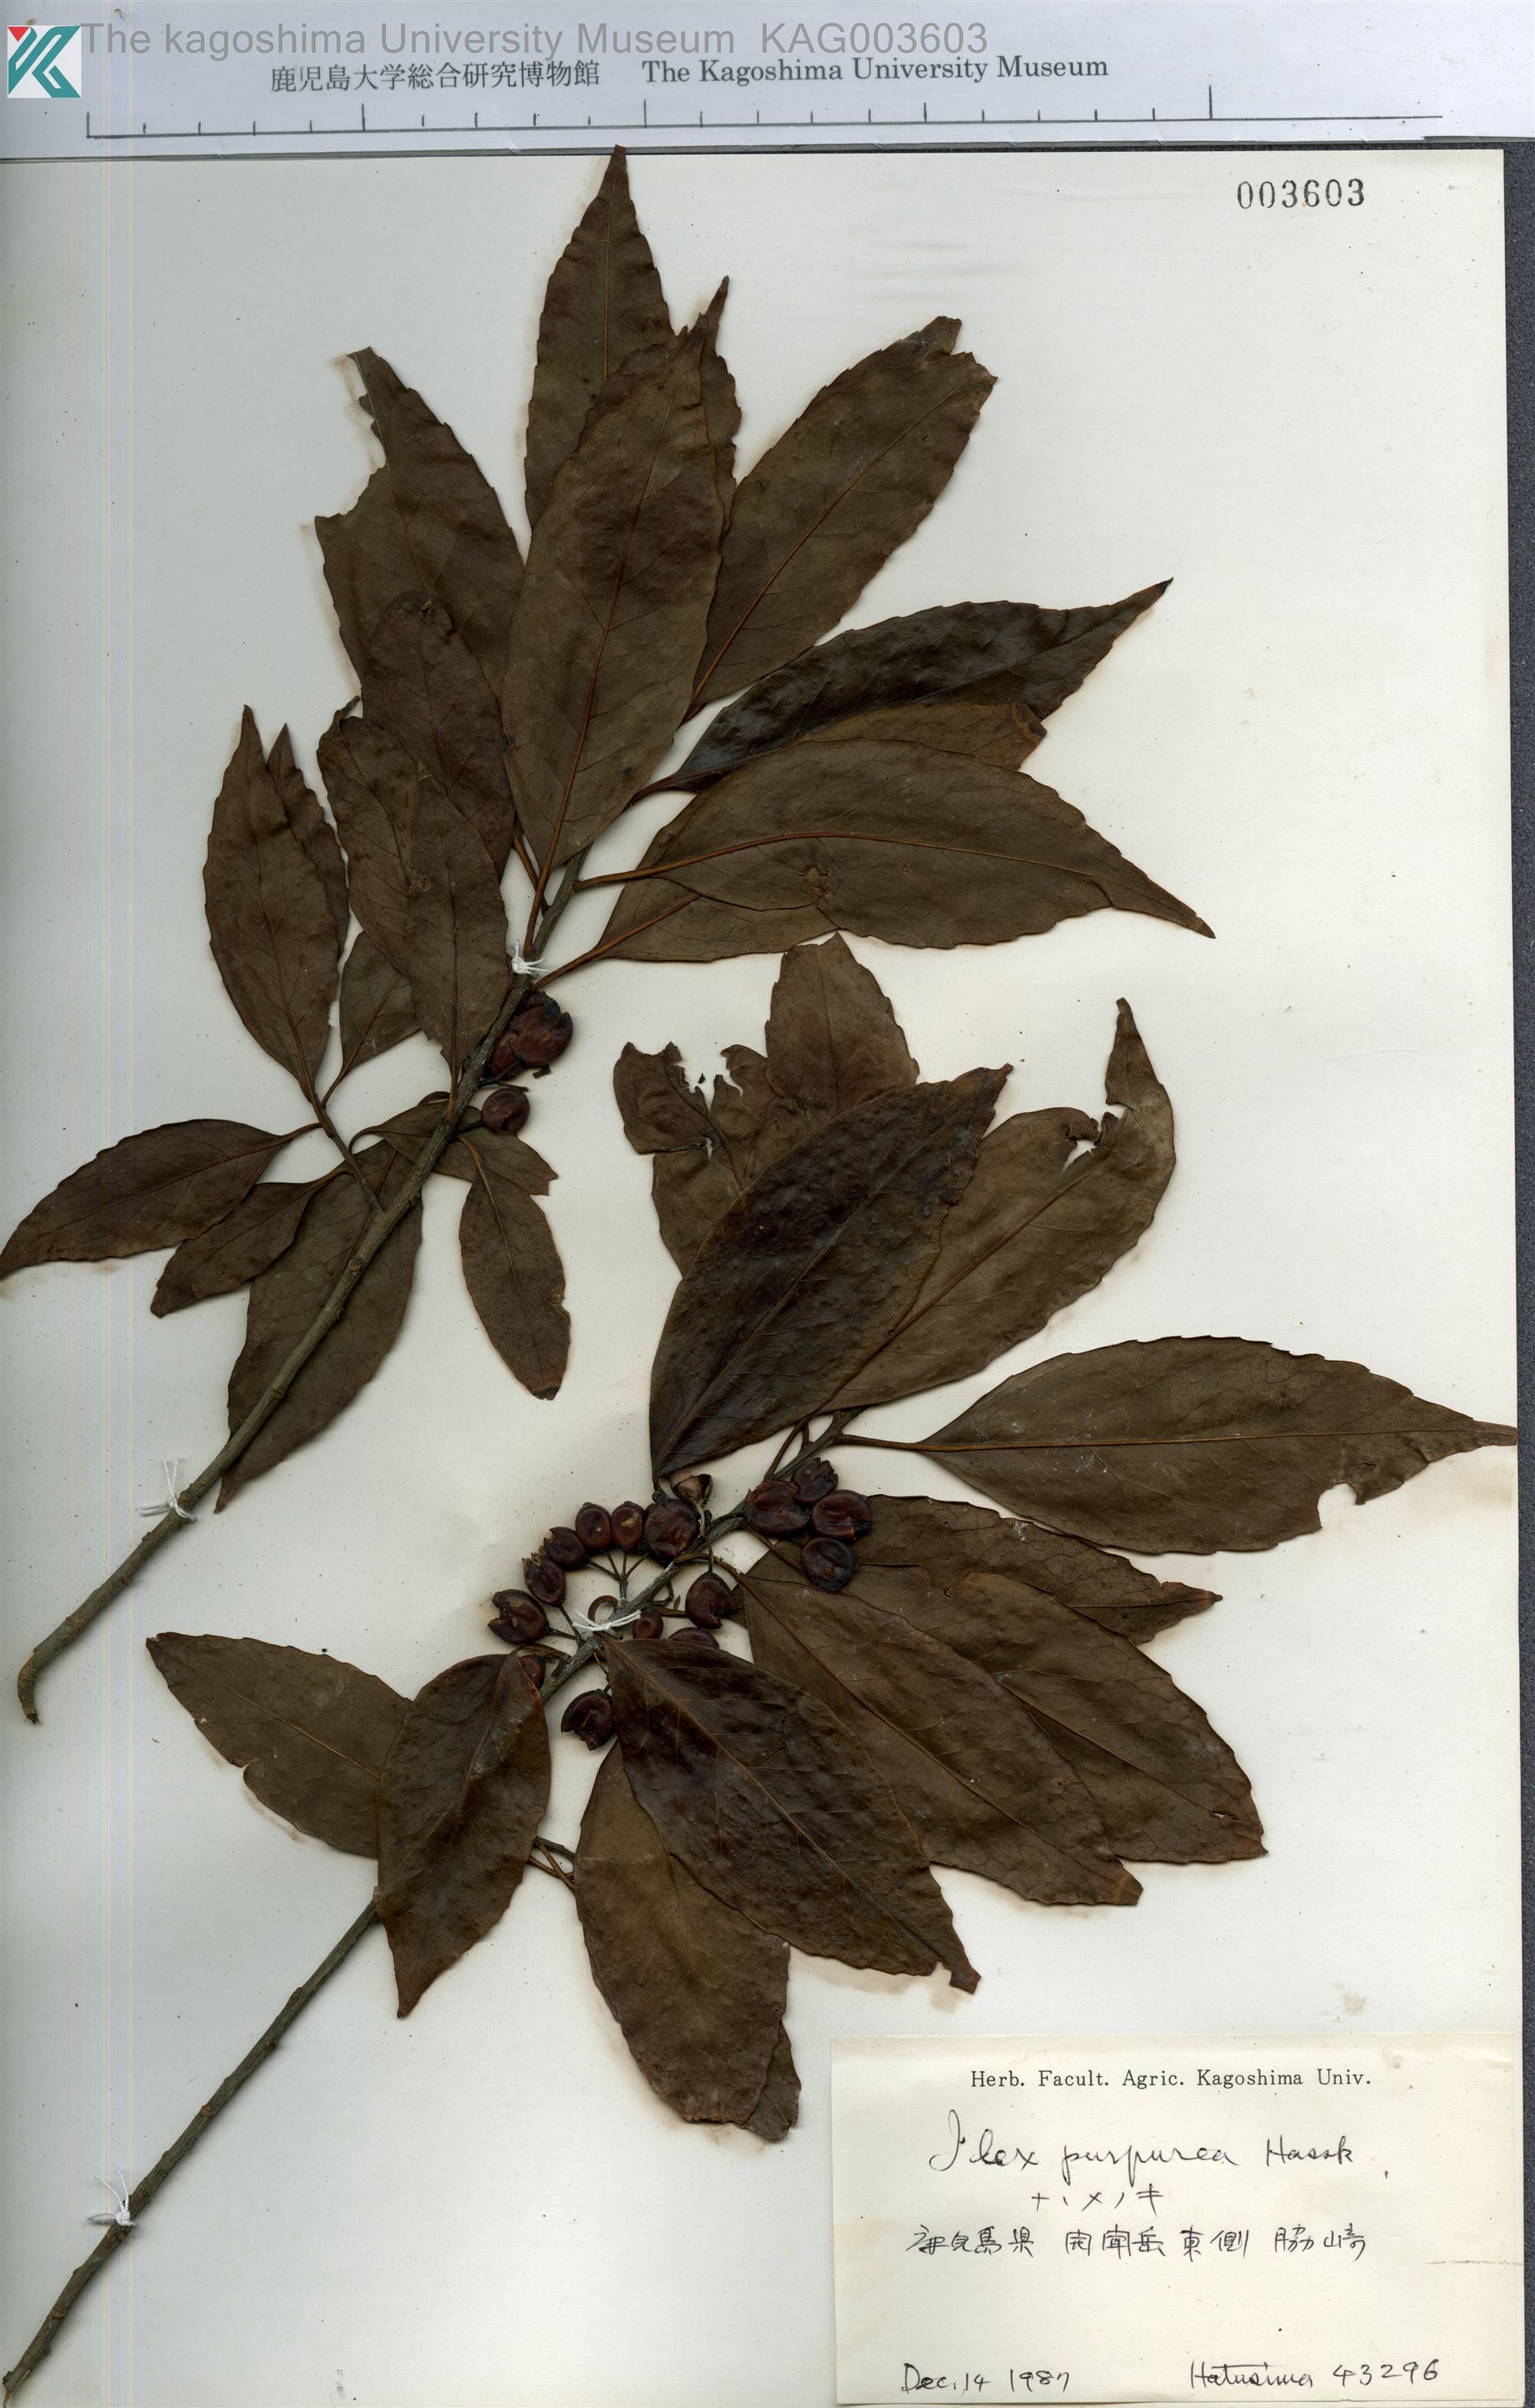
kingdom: Plantae
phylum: Tracheophyta
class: Magnoliopsida
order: Aquifoliales
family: Aquifoliaceae
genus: Ilex
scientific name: Ilex chinensis
